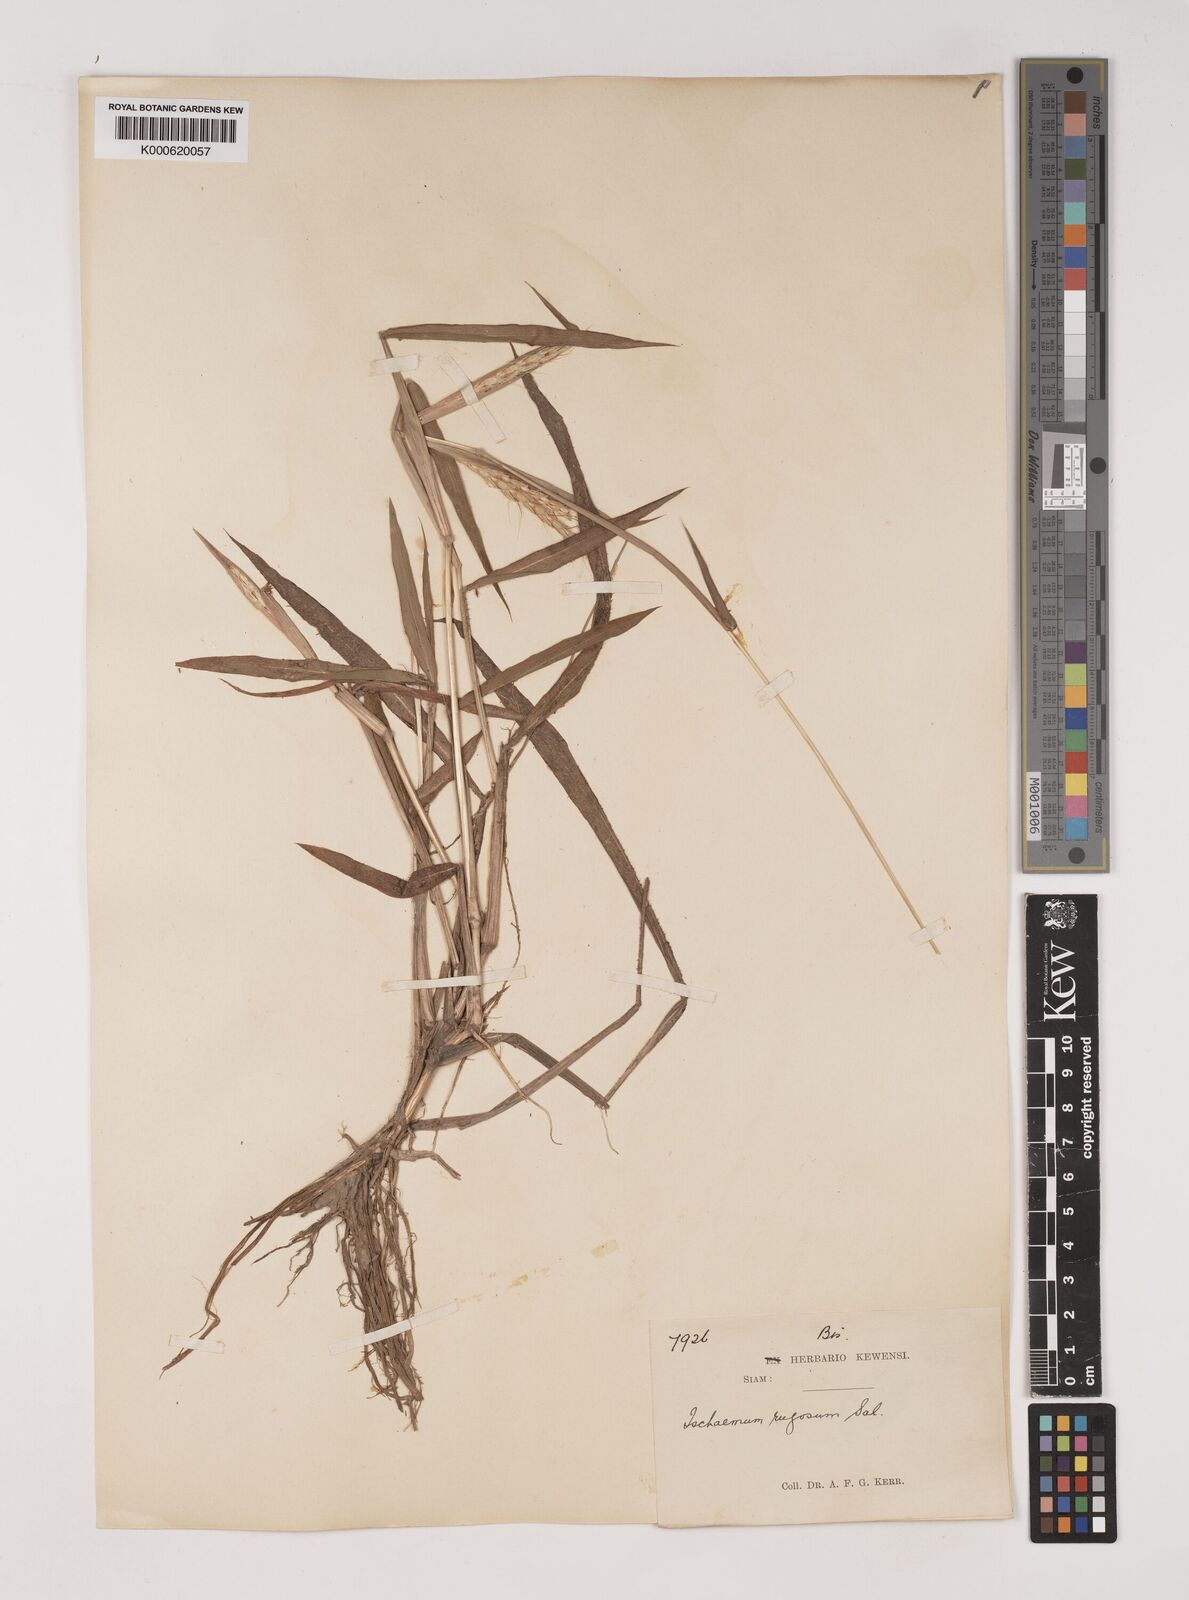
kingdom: Plantae
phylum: Tracheophyta
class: Liliopsida
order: Poales
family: Poaceae
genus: Ischaemum
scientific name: Ischaemum rugosum
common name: Saramatta grass
